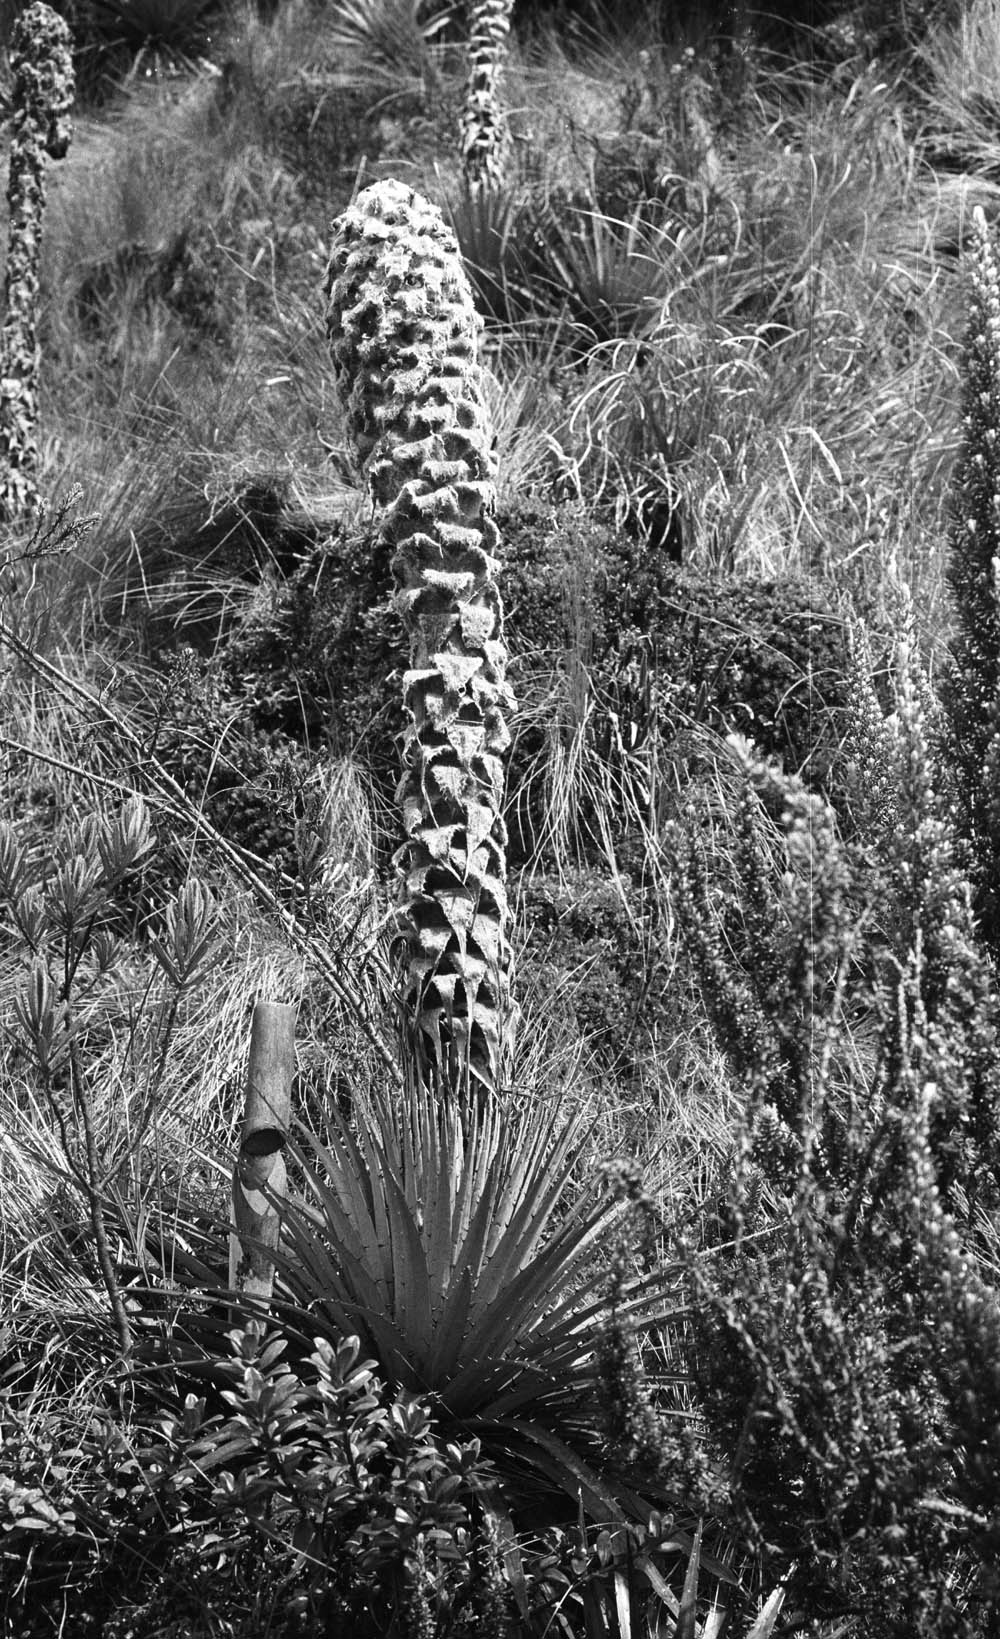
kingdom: Plantae
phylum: Tracheophyta
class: Liliopsida
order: Poales
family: Bromeliaceae
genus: Puya
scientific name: Puya clava-herculis
